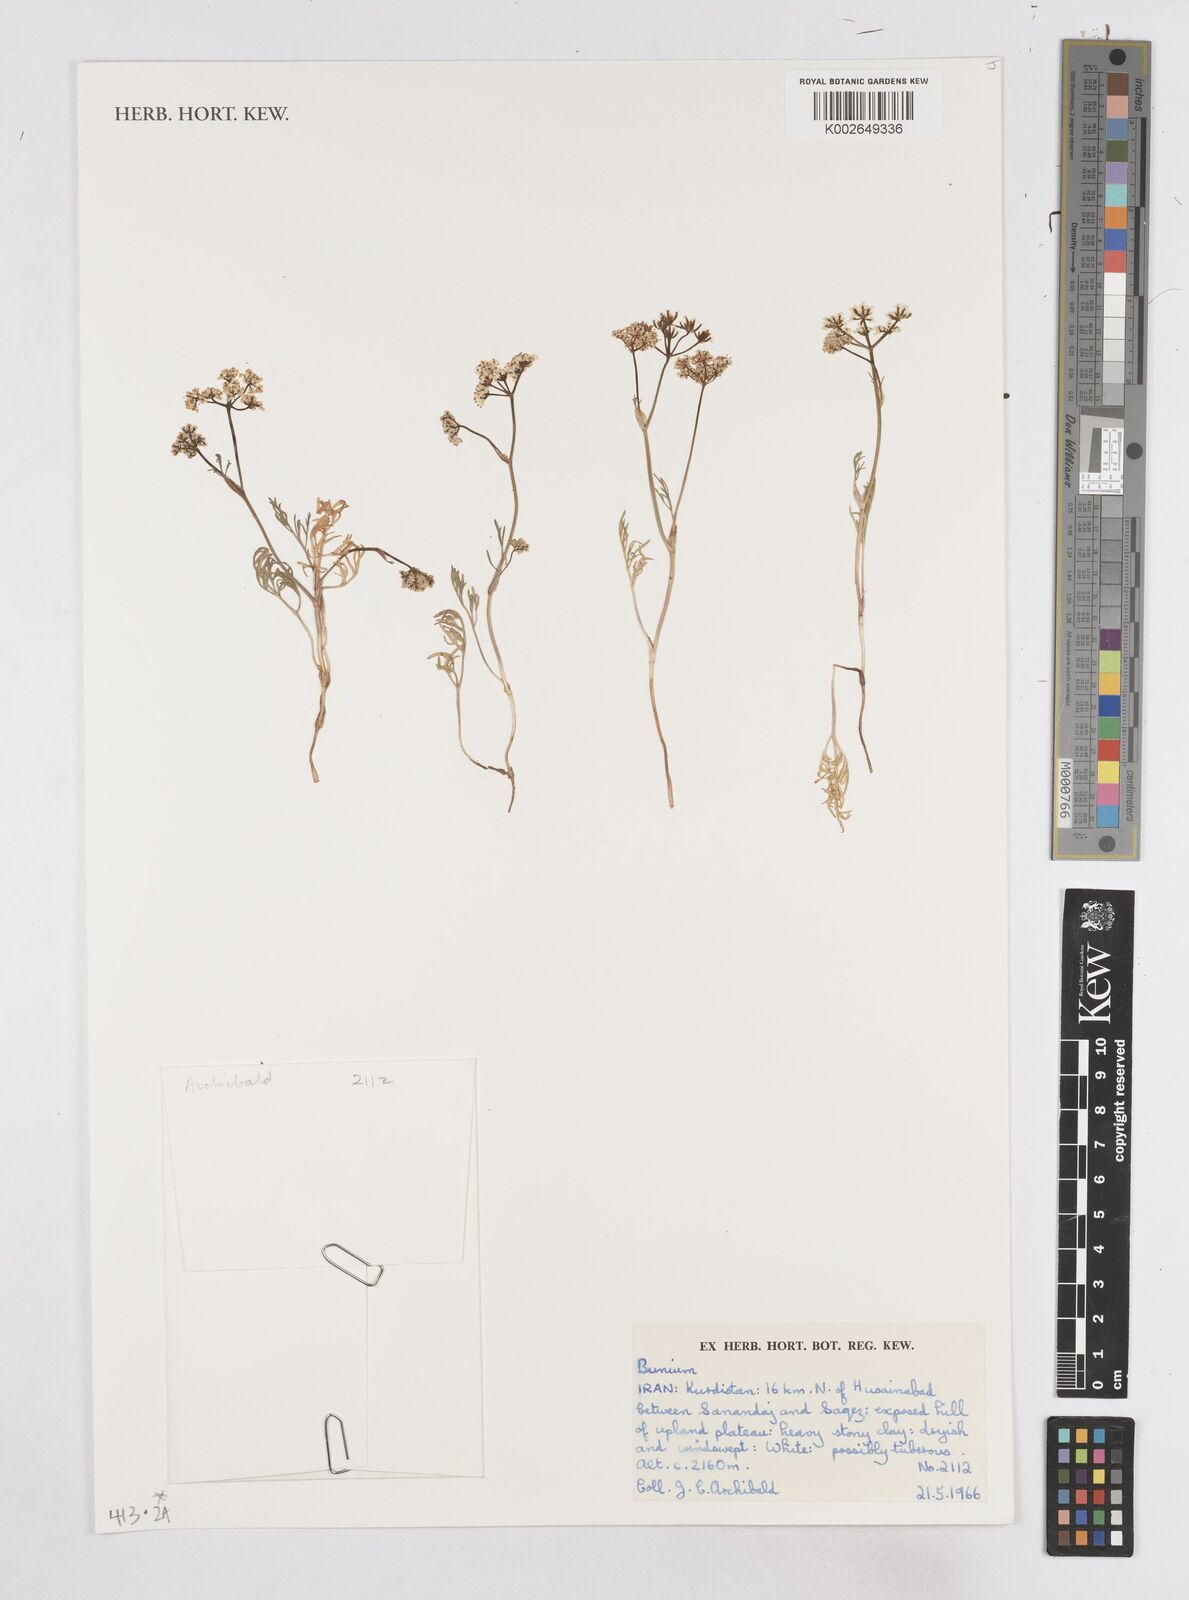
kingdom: Plantae
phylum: Tracheophyta
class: Magnoliopsida
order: Apiales
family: Apiaceae
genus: Bunium
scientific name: Bunium
